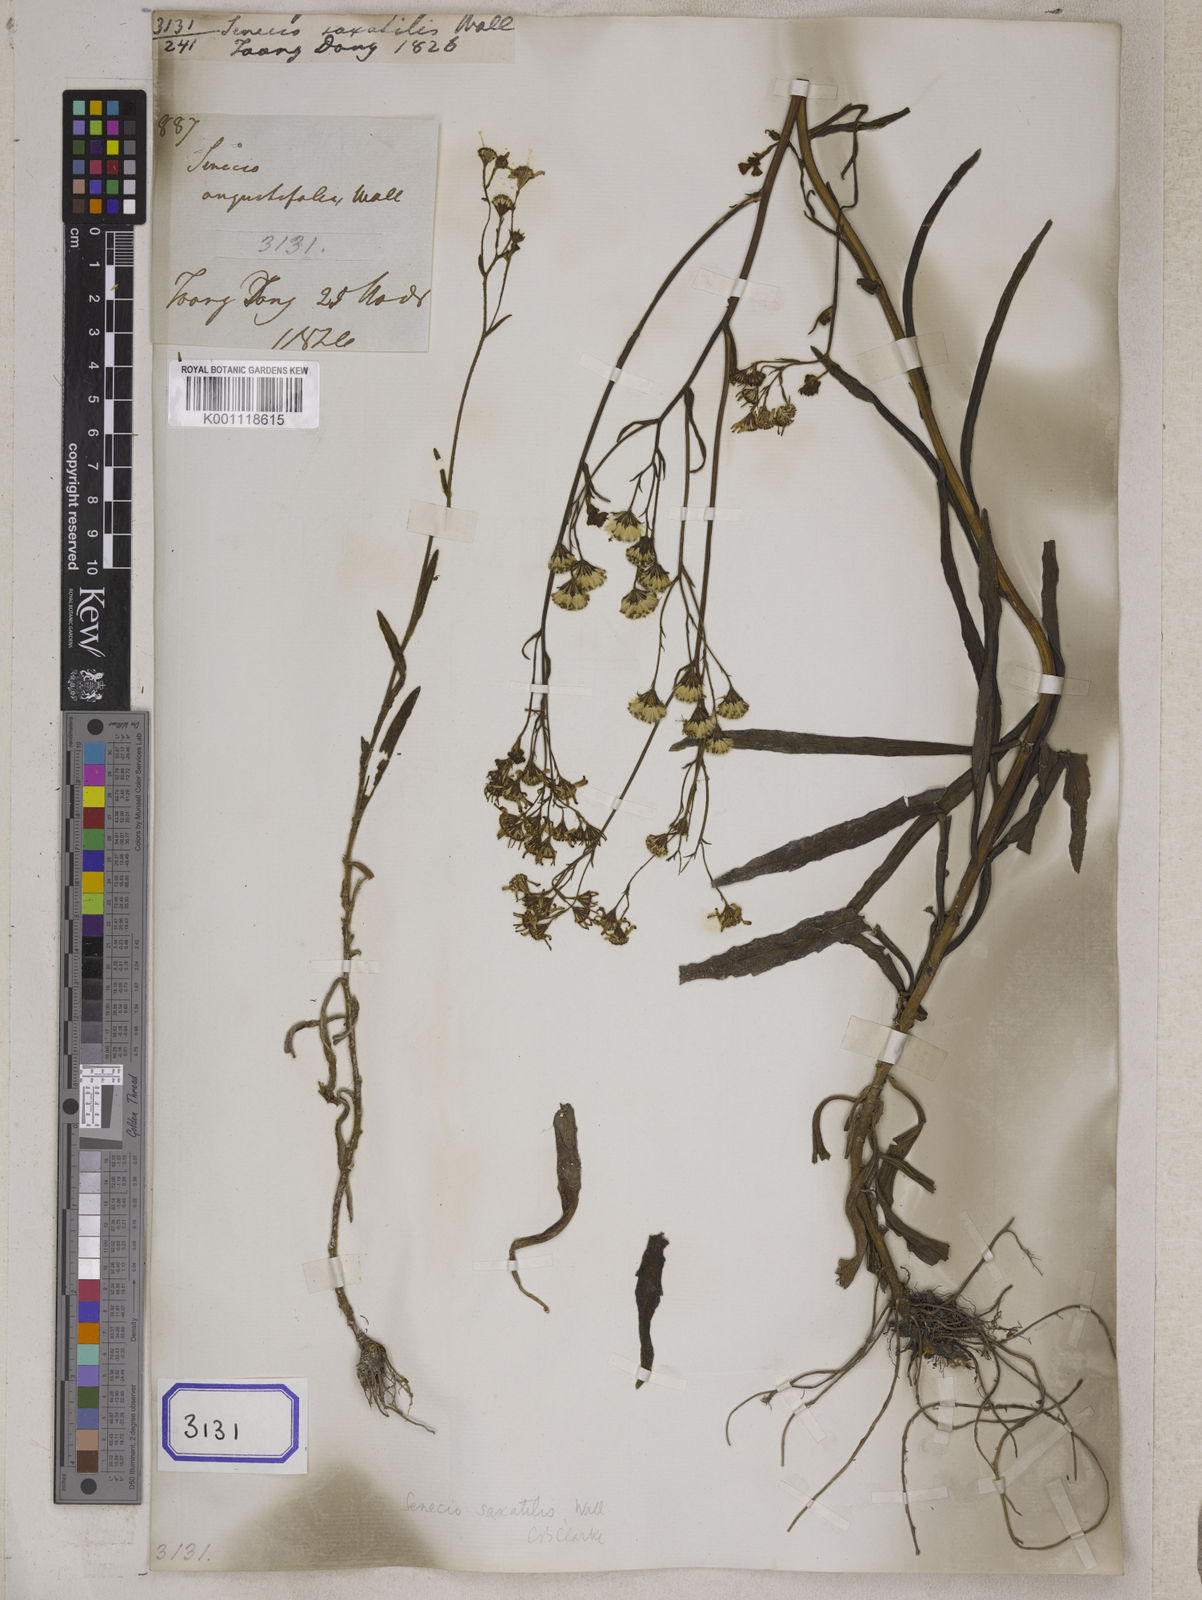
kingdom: Plantae
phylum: Tracheophyta
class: Magnoliopsida
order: Asterales
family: Asteraceae
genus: Senecio
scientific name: Senecio wightii
